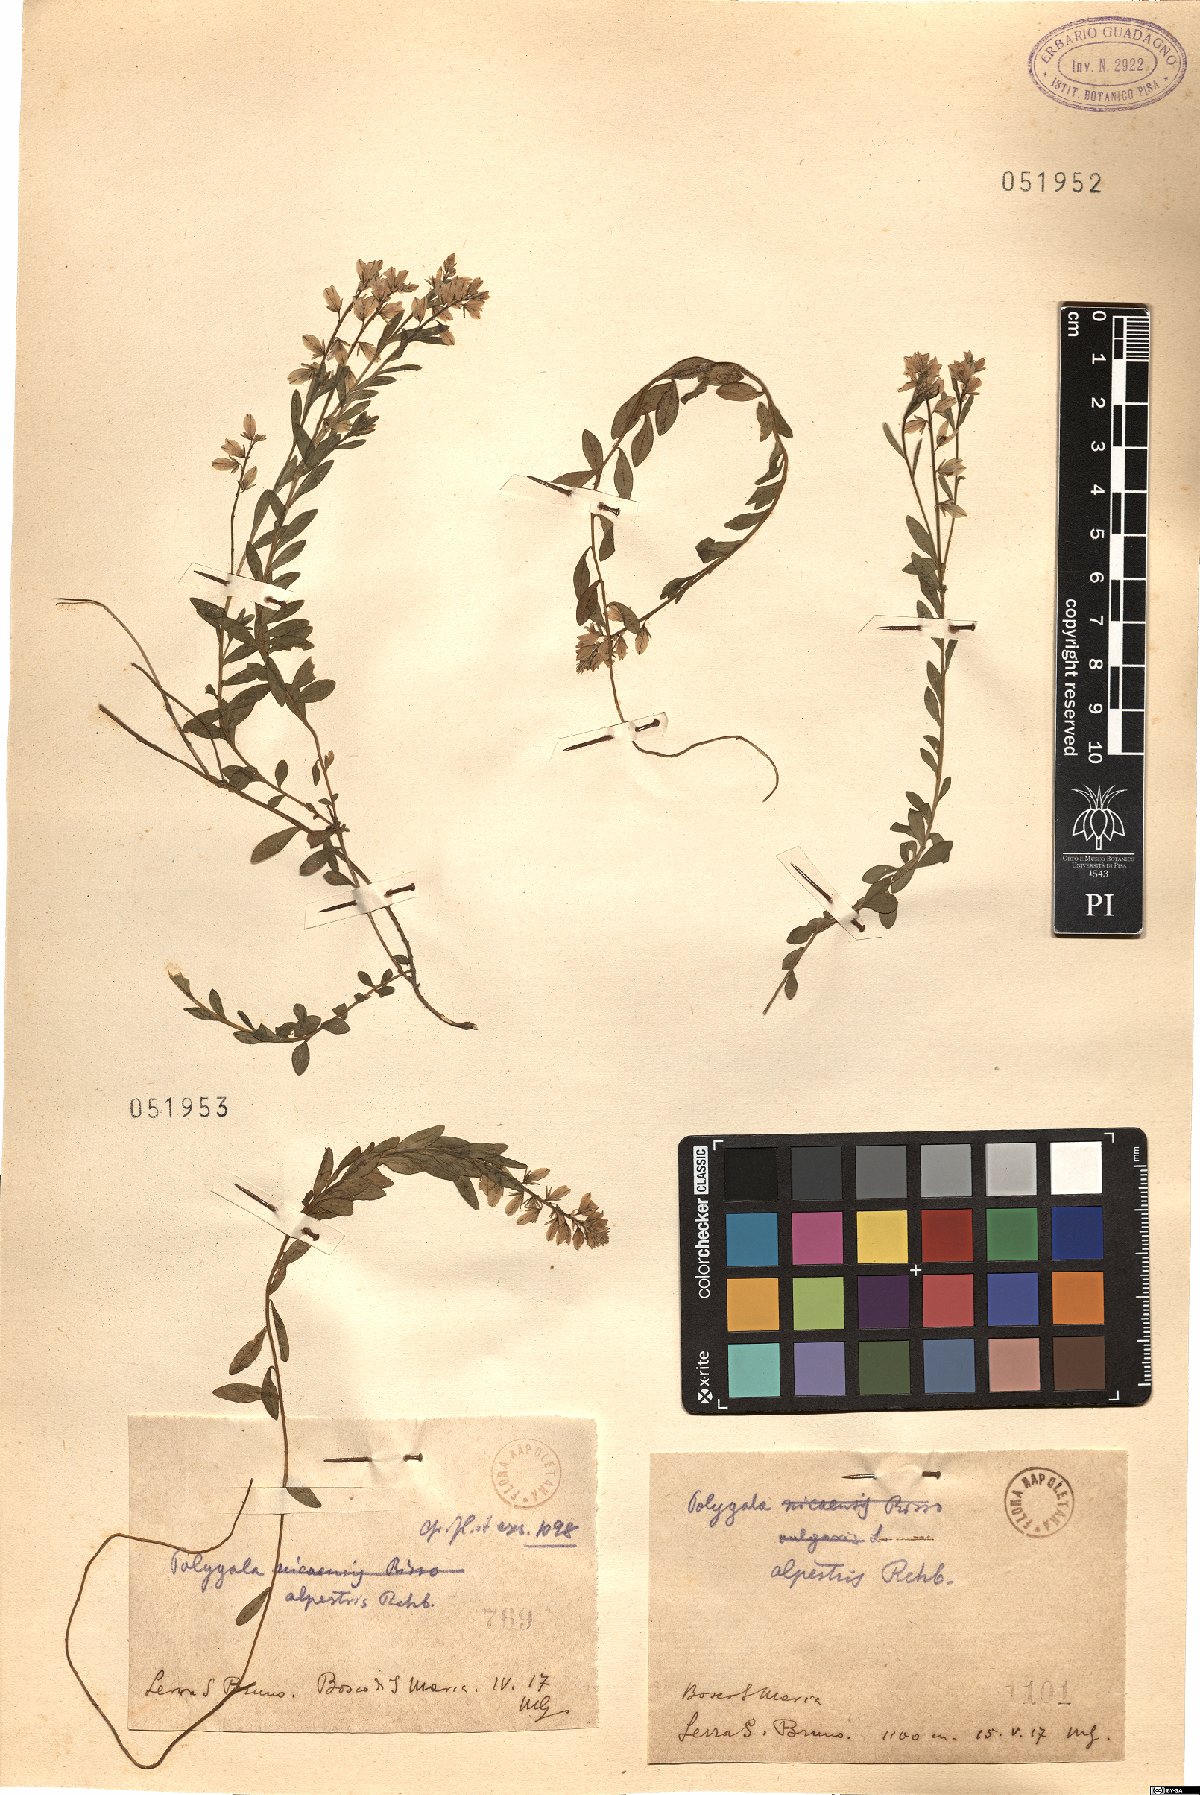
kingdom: Plantae
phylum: Tracheophyta
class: Magnoliopsida
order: Fabales
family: Polygalaceae
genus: Polygala
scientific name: Polygala alpestris
